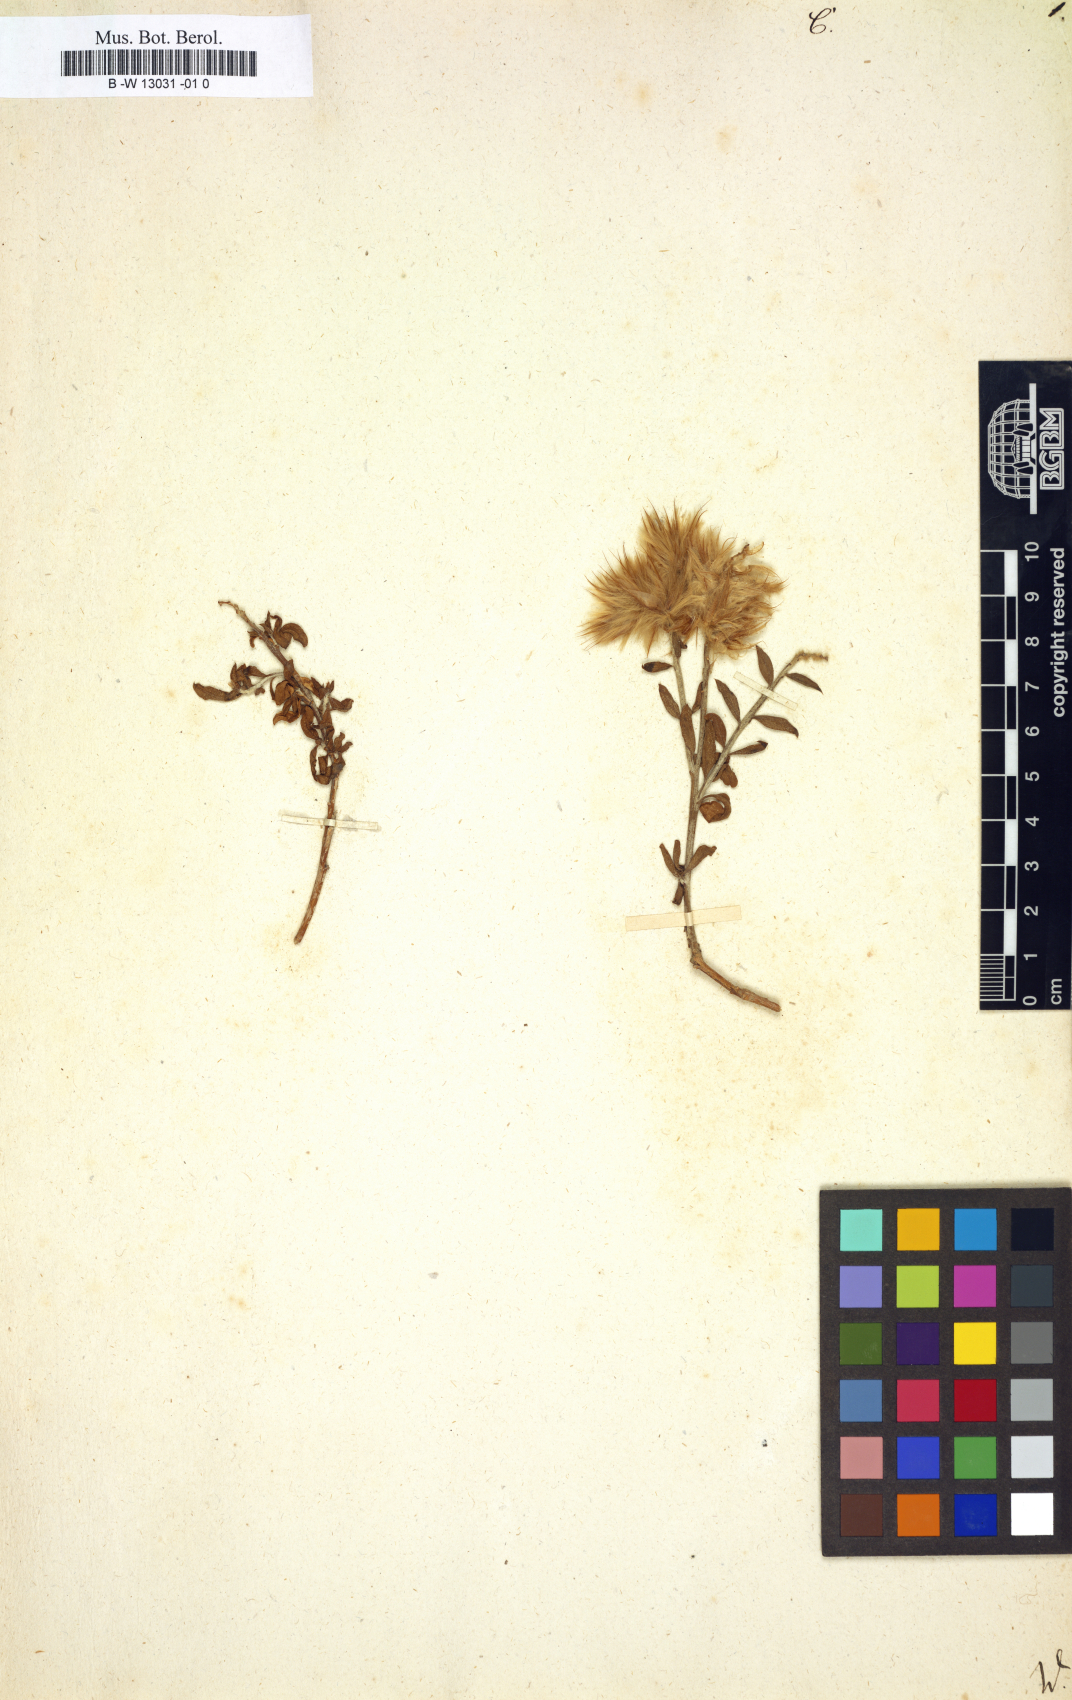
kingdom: Plantae
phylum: Tracheophyta
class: Magnoliopsida
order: Fabales
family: Polygalaceae
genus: Comesperma
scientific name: Comesperma
